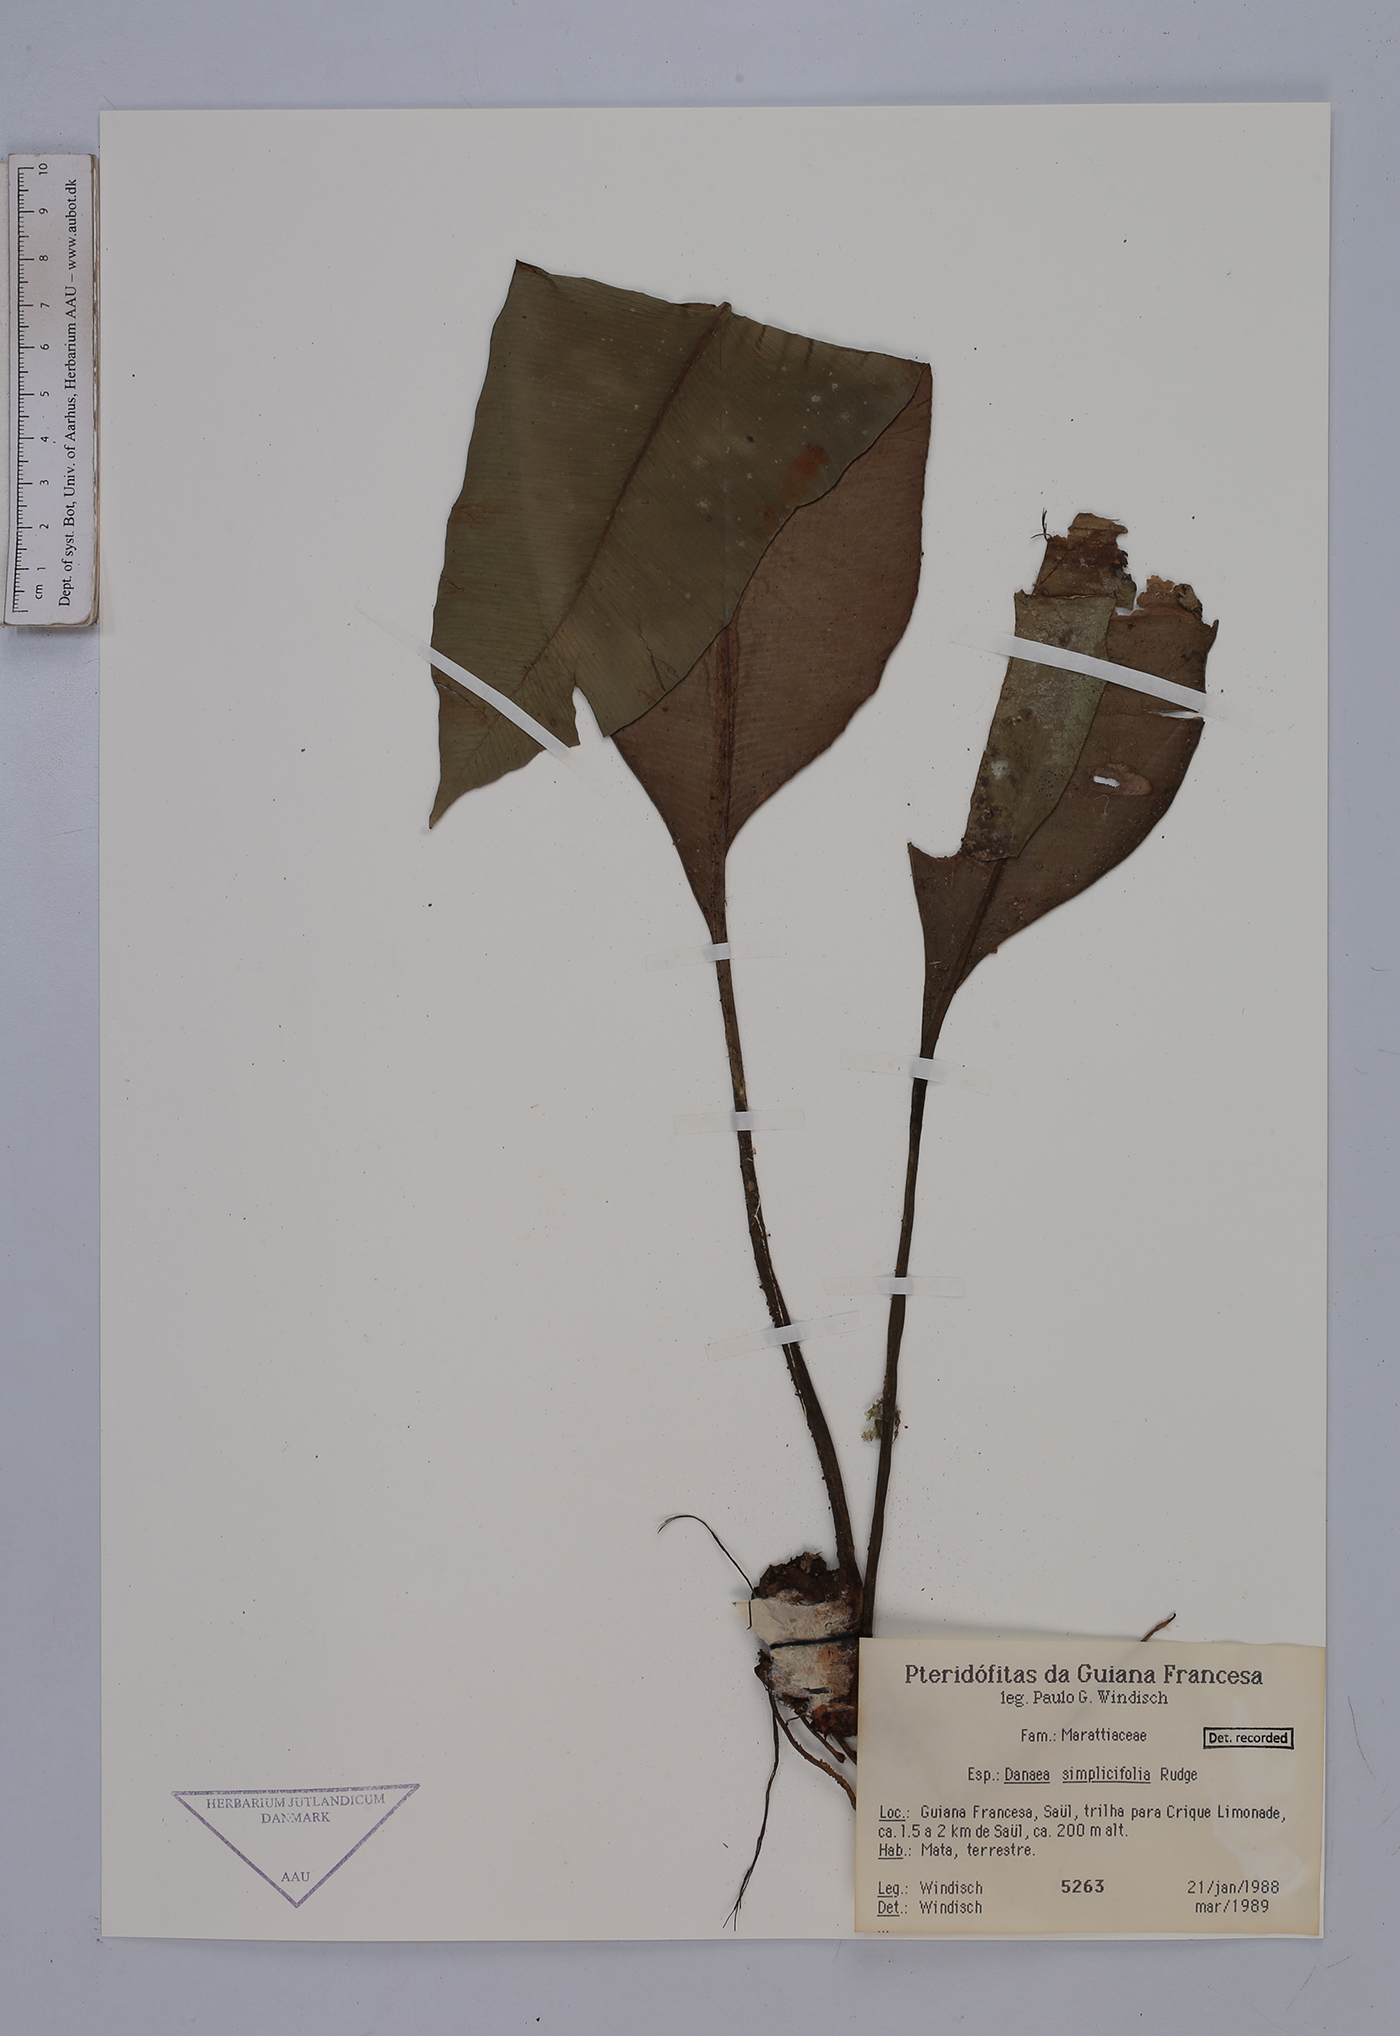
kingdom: Plantae
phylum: Tracheophyta
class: Polypodiopsida
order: Marattiales
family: Marattiaceae
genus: Danaea
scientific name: Danaea simplicifolia
